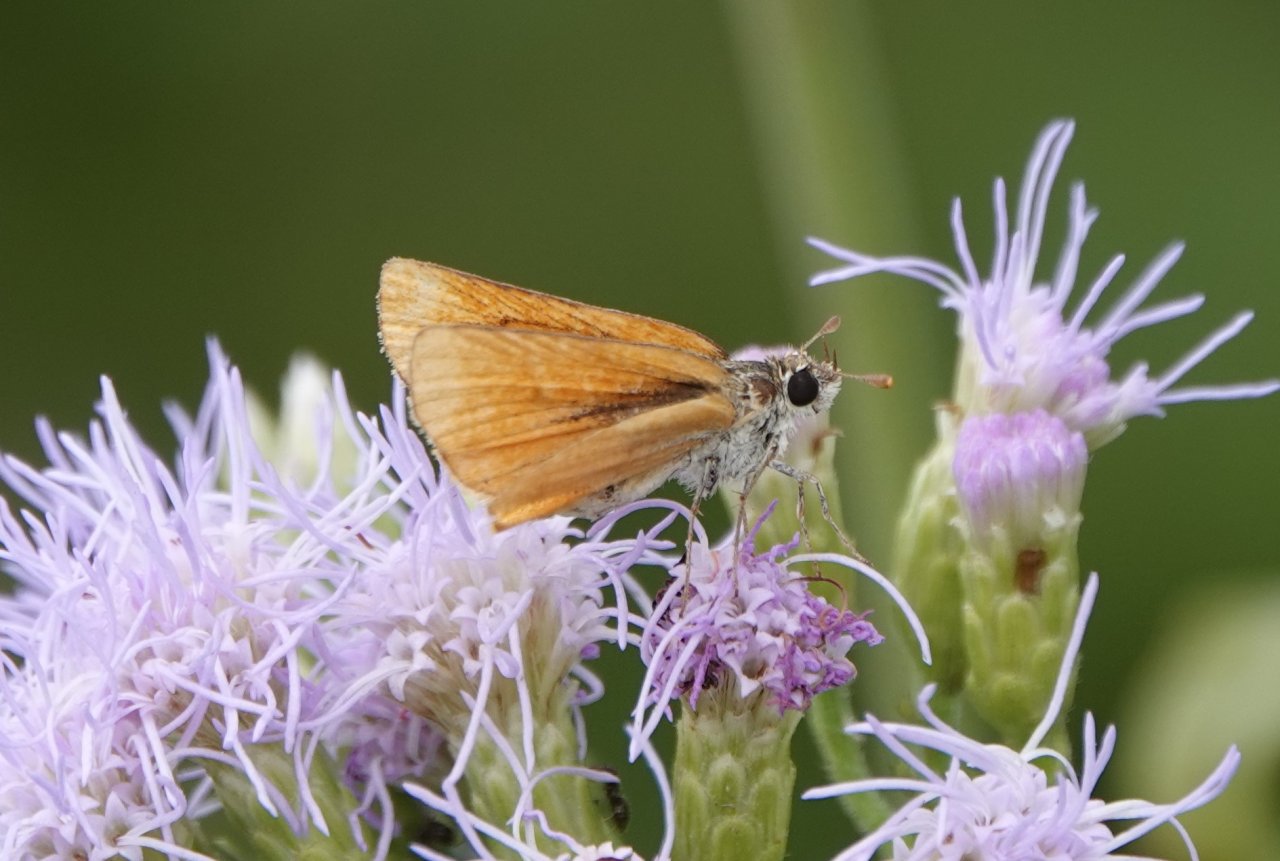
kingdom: Animalia
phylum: Arthropoda
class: Insecta
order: Lepidoptera
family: Hesperiidae
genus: Copaeodes
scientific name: Copaeodes minima
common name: Southern Skipperling
